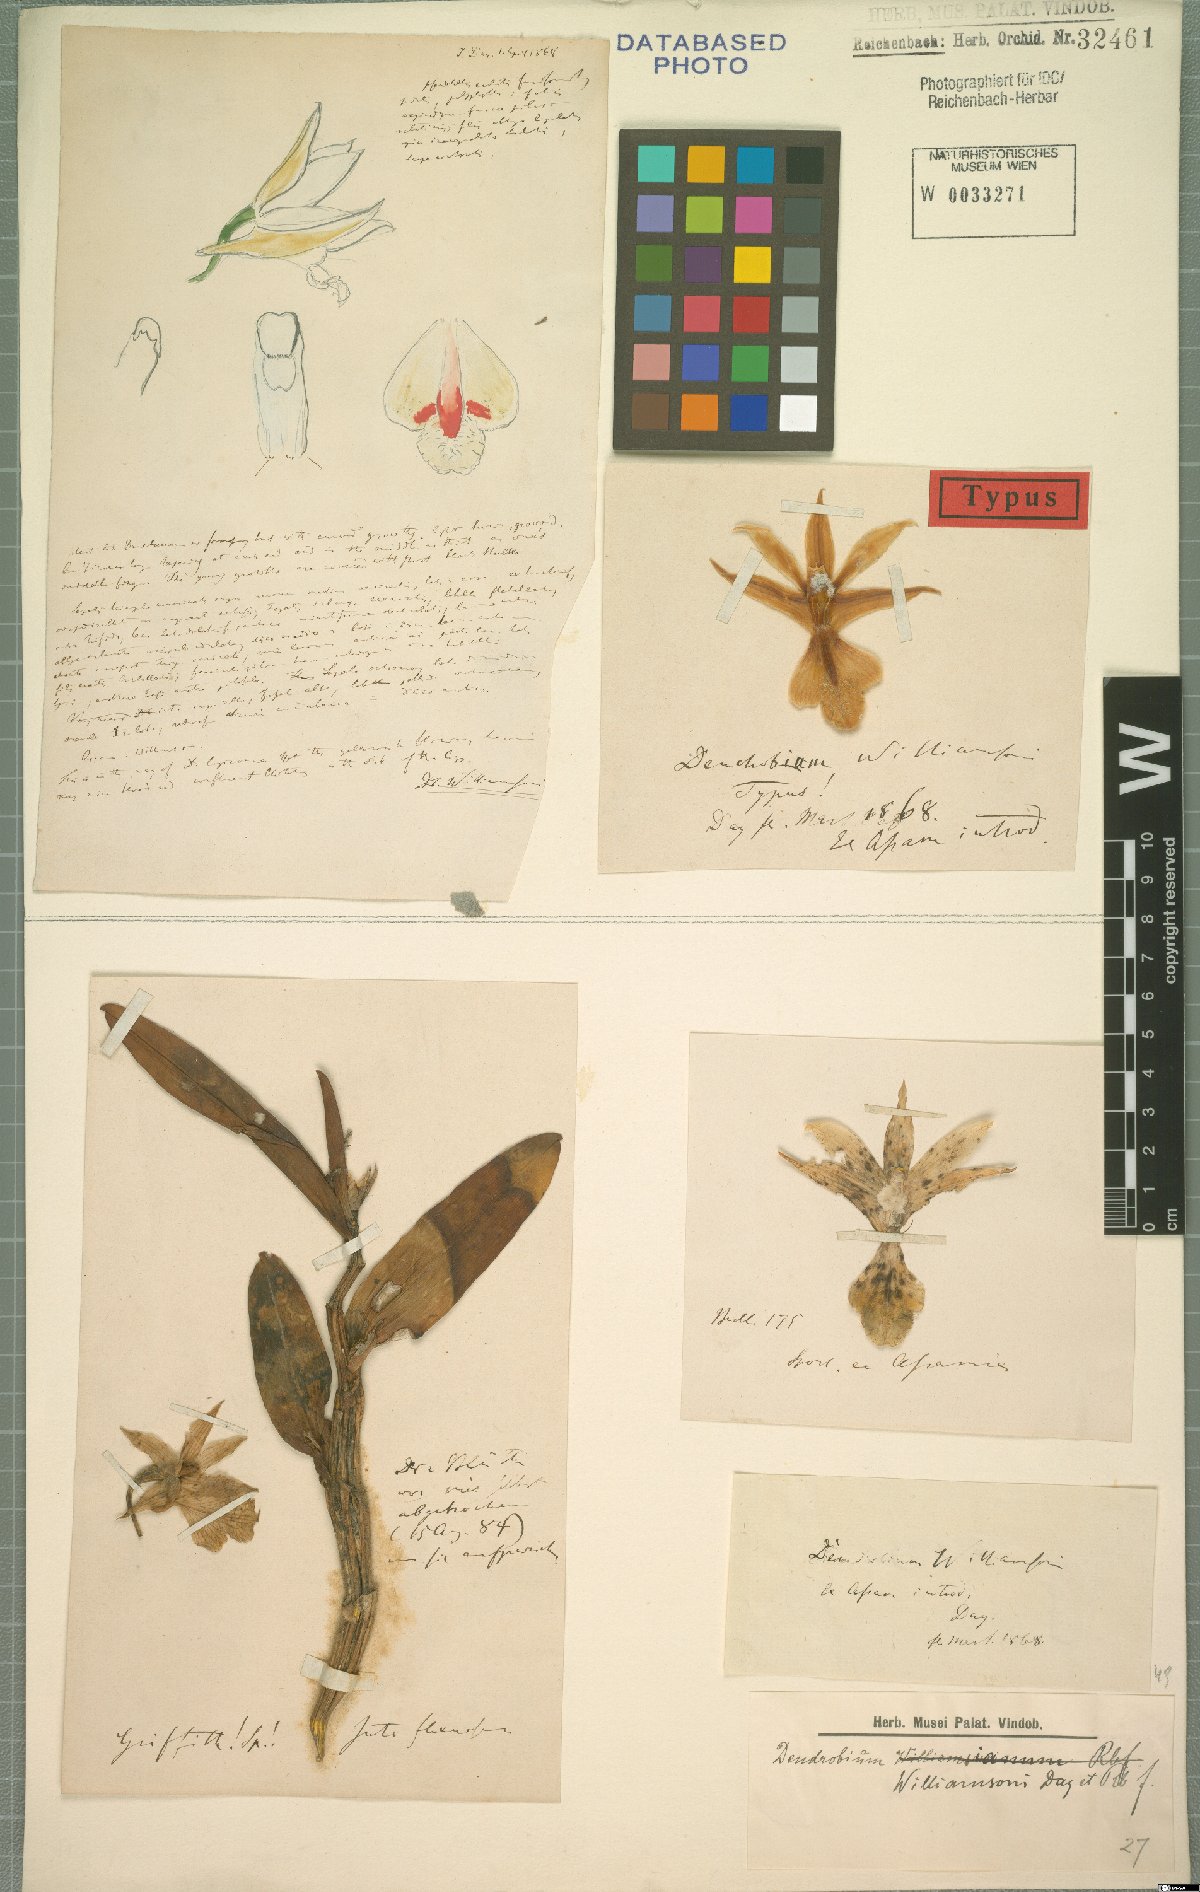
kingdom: Plantae
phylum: Tracheophyta
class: Liliopsida
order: Asparagales
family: Orchidaceae
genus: Dendrobium
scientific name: Dendrobium williamsonii
